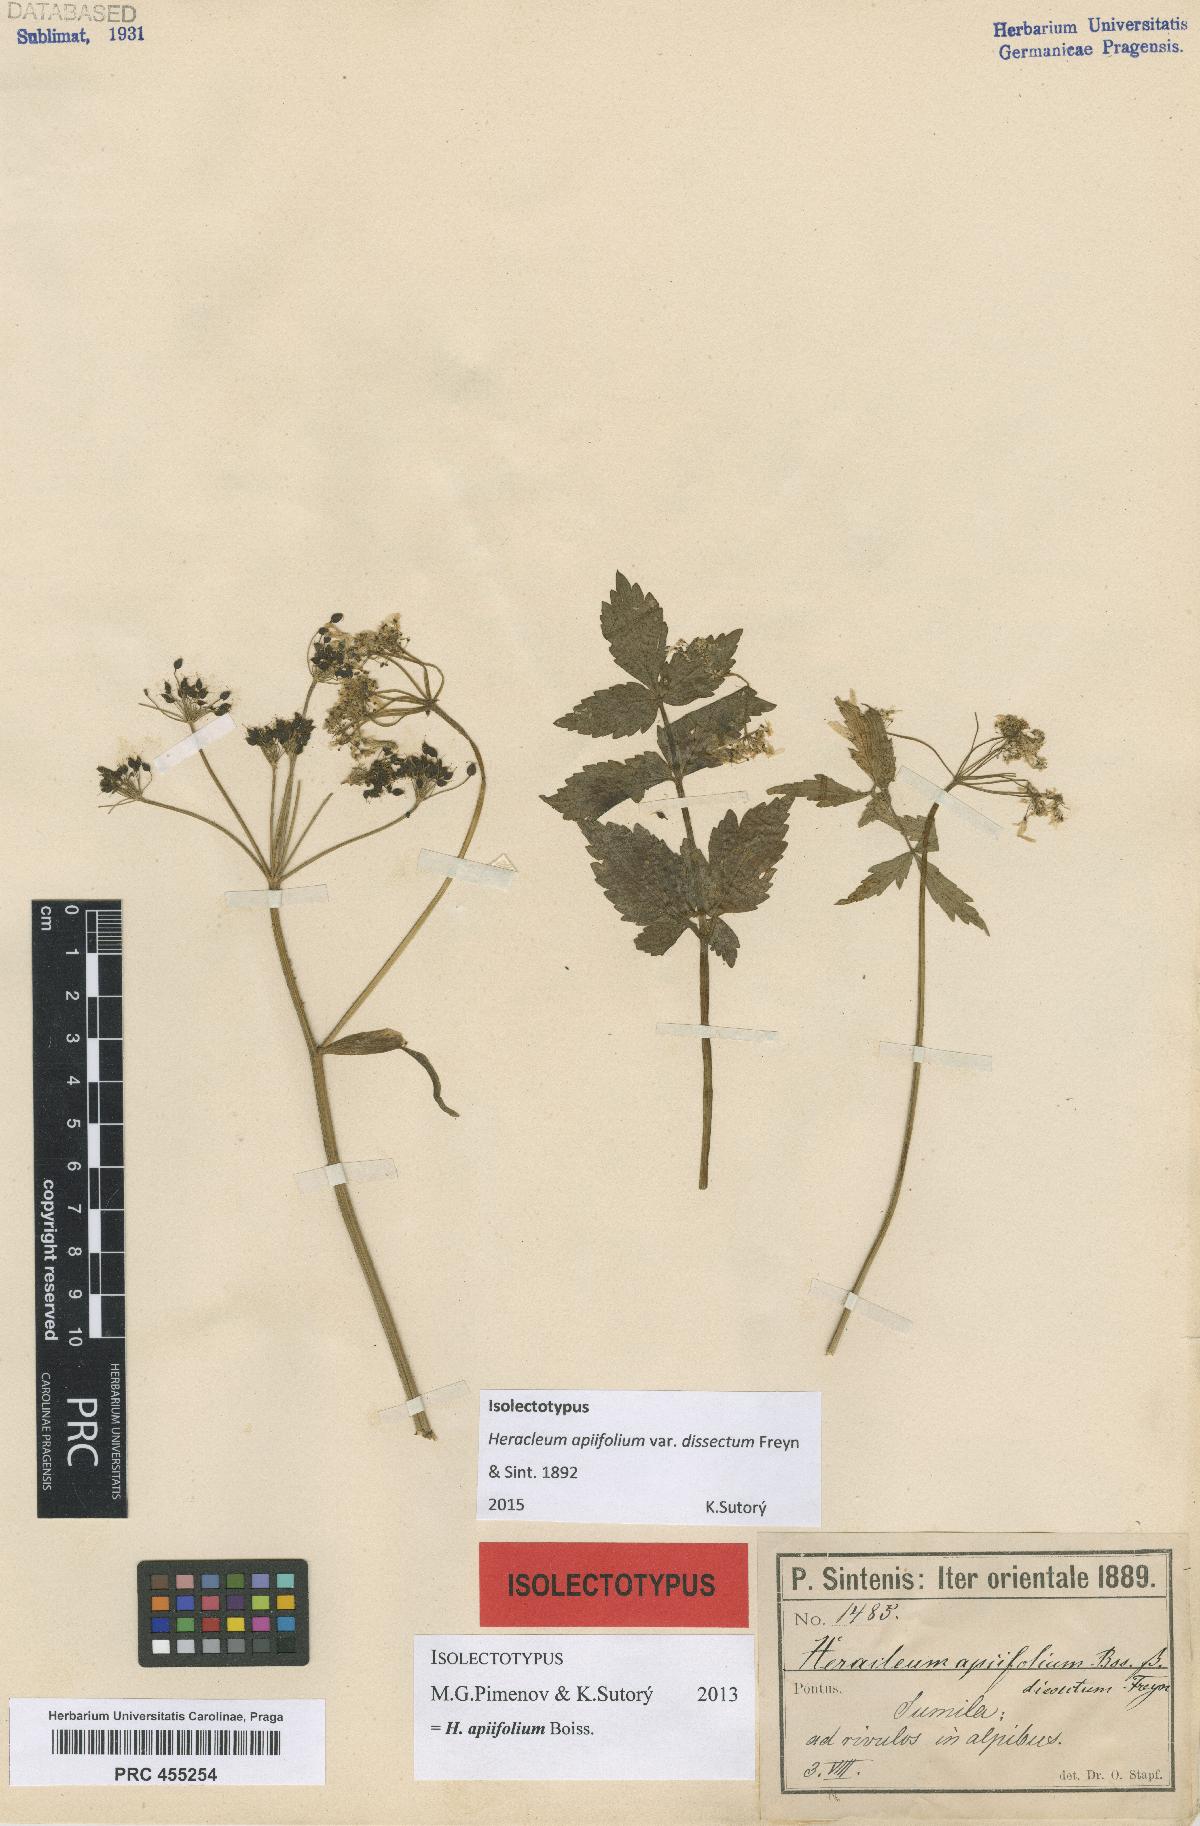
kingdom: Plantae
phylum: Tracheophyta
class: Magnoliopsida
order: Apiales
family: Apiaceae
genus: Heracleum
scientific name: Heracleum apiifolium
